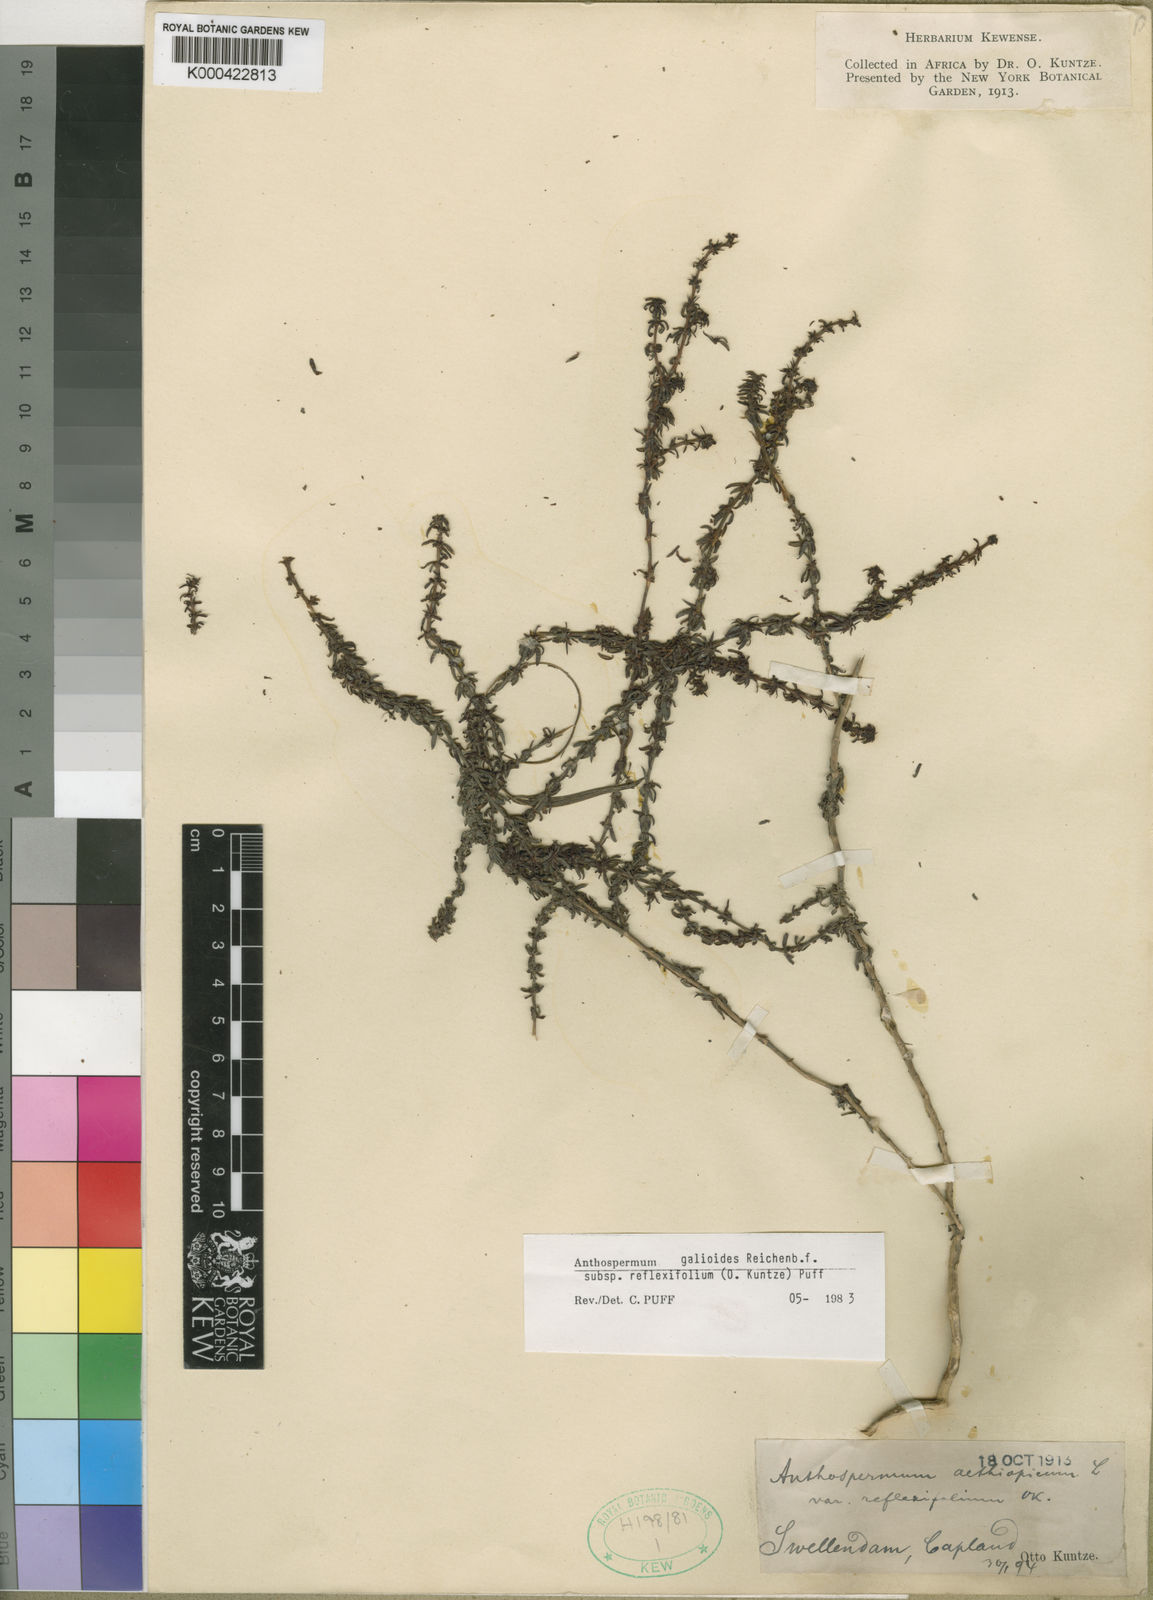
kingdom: Plantae
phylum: Tracheophyta
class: Magnoliopsida
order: Gentianales
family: Rubiaceae
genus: Anthospermum
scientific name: Anthospermum galioides
